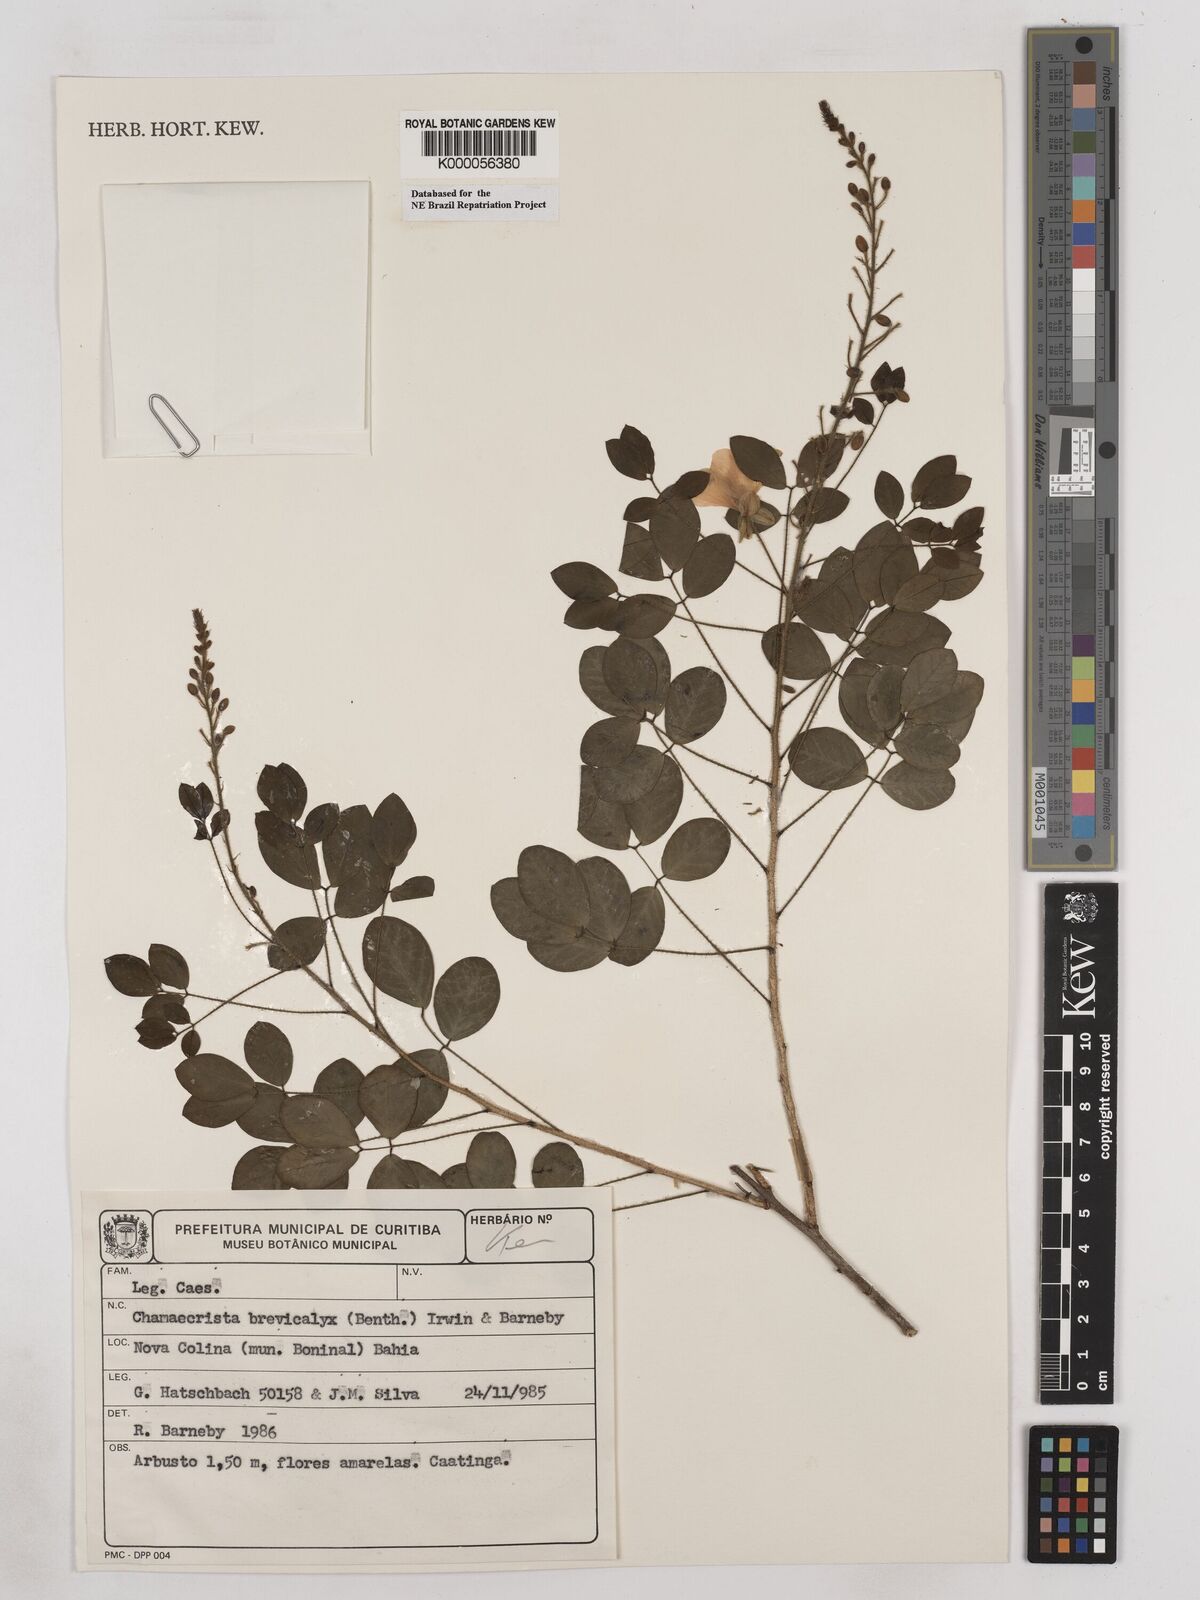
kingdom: Plantae
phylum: Tracheophyta
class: Magnoliopsida
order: Fabales
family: Fabaceae
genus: Chamaecrista
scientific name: Chamaecrista brevicalyx
